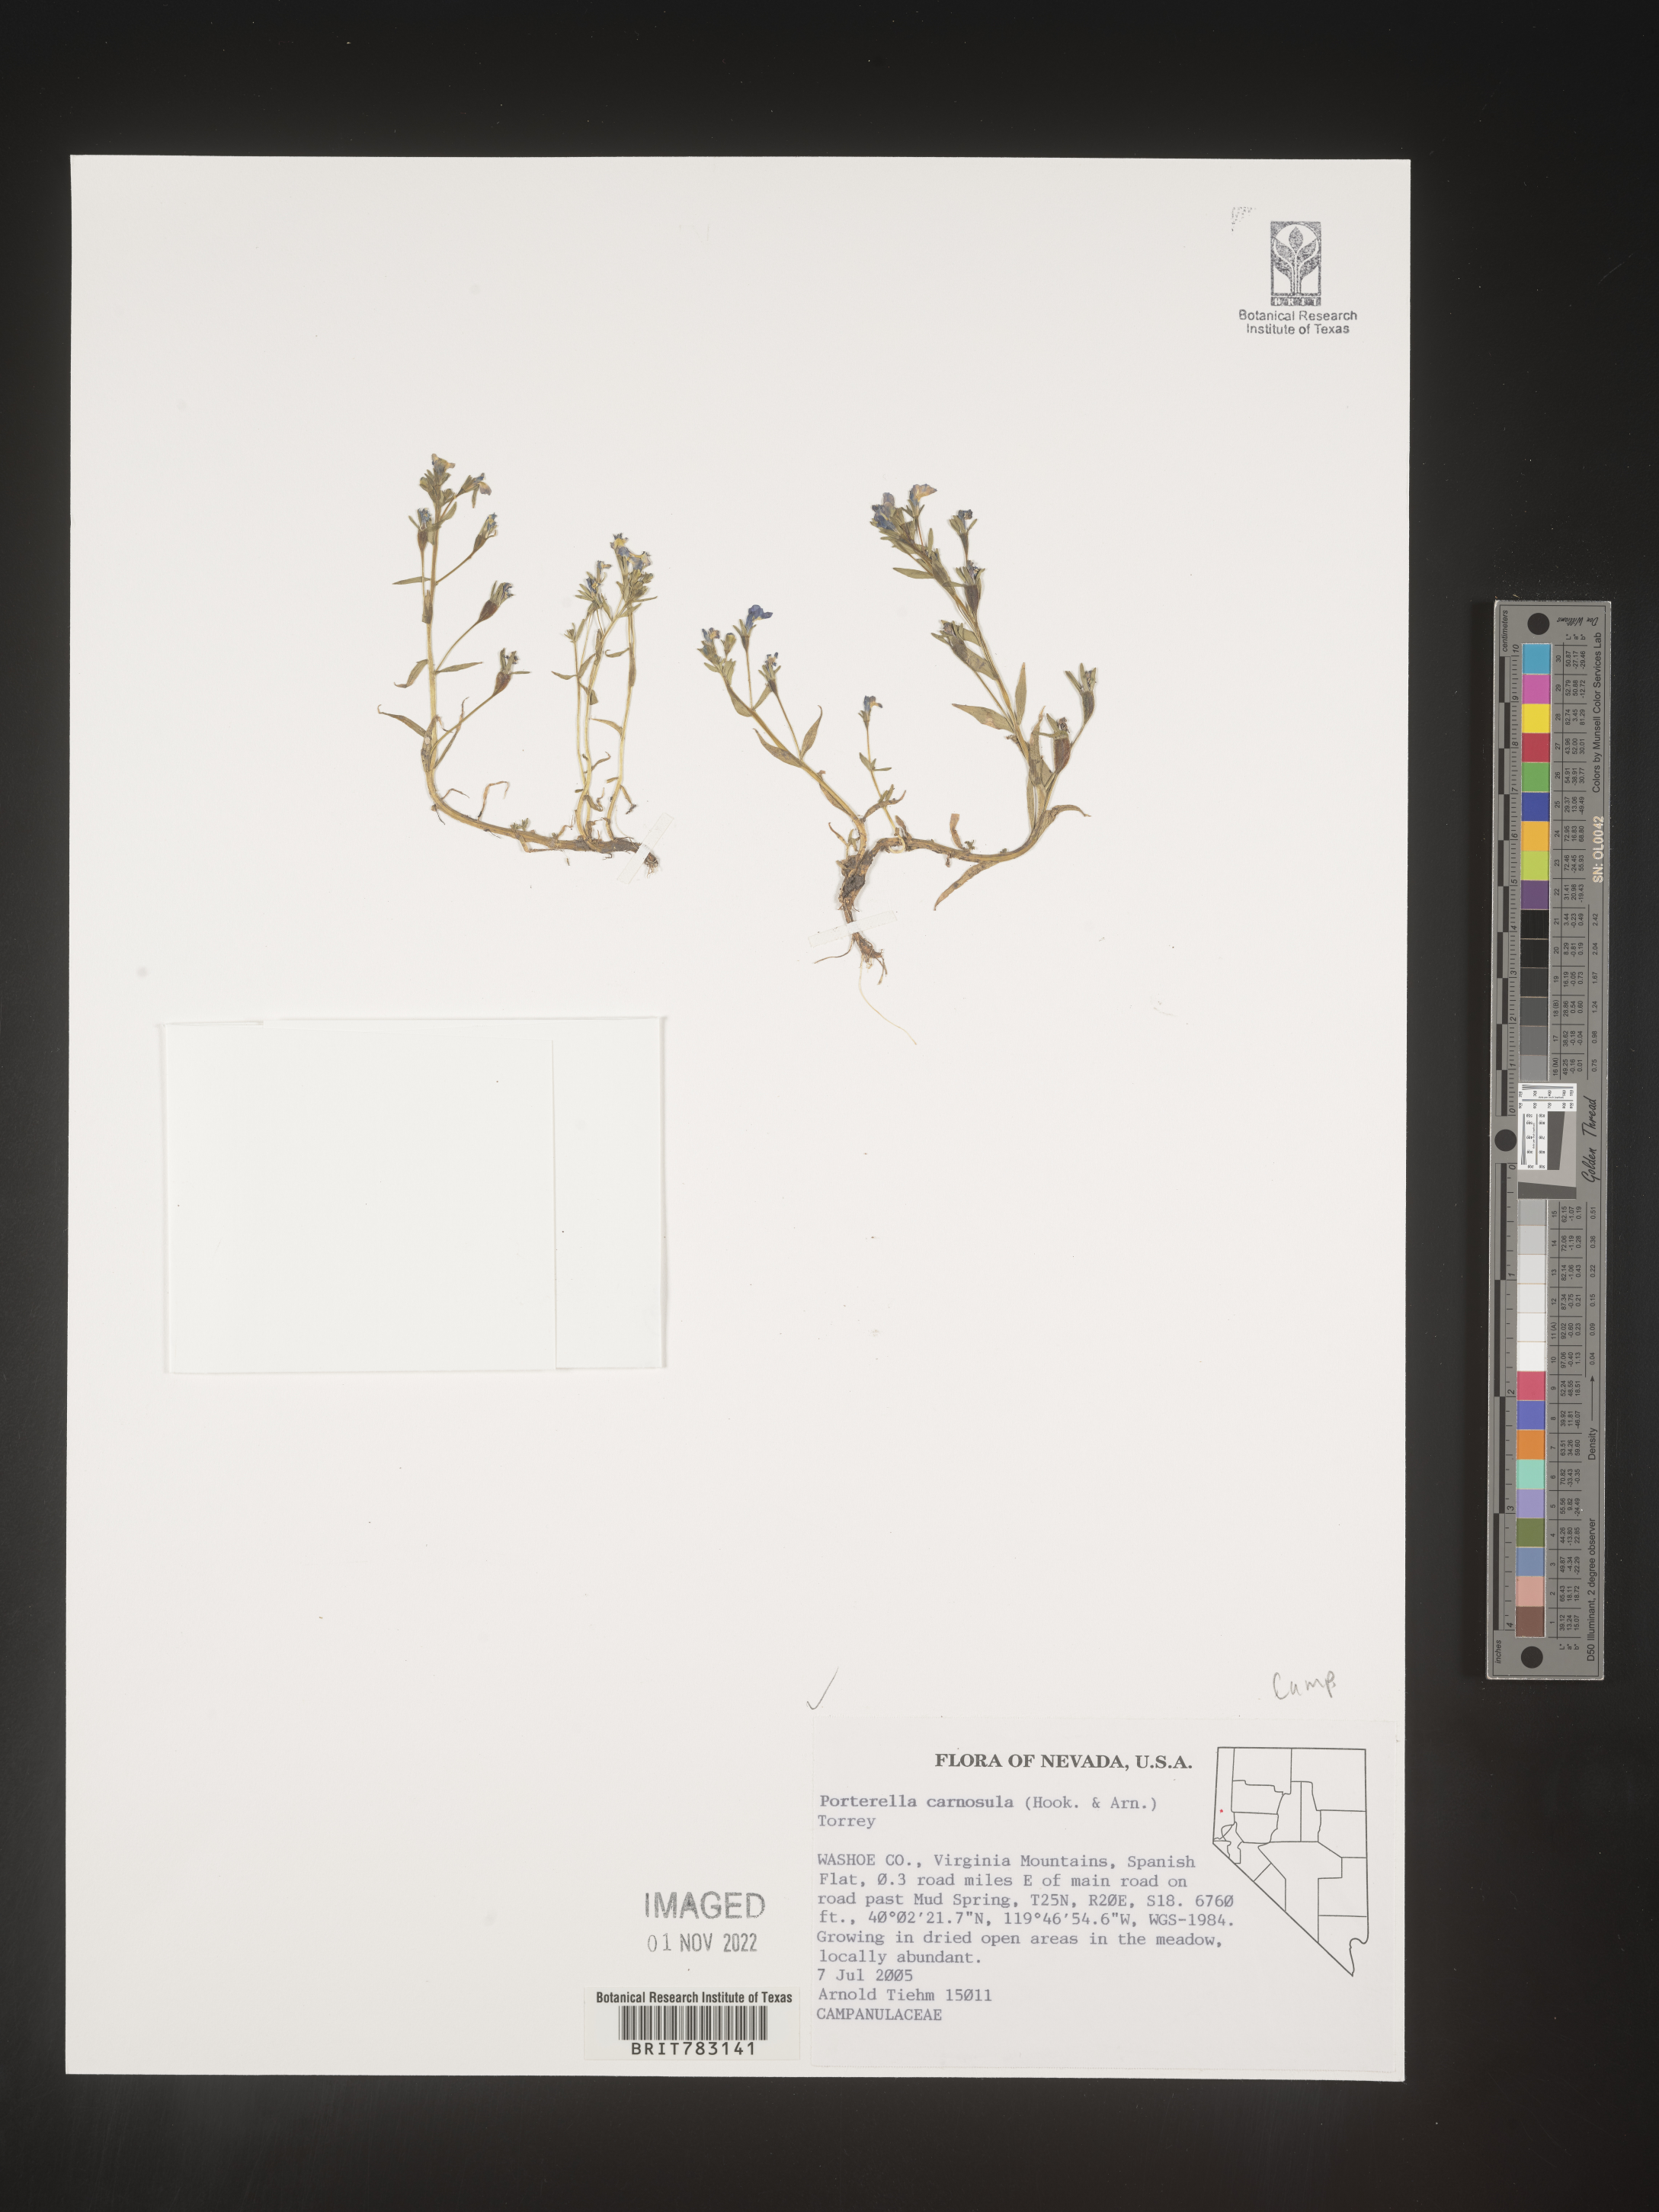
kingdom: Plantae
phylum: Tracheophyta
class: Magnoliopsida
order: Asterales
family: Campanulaceae
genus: Porterella
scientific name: Porterella
